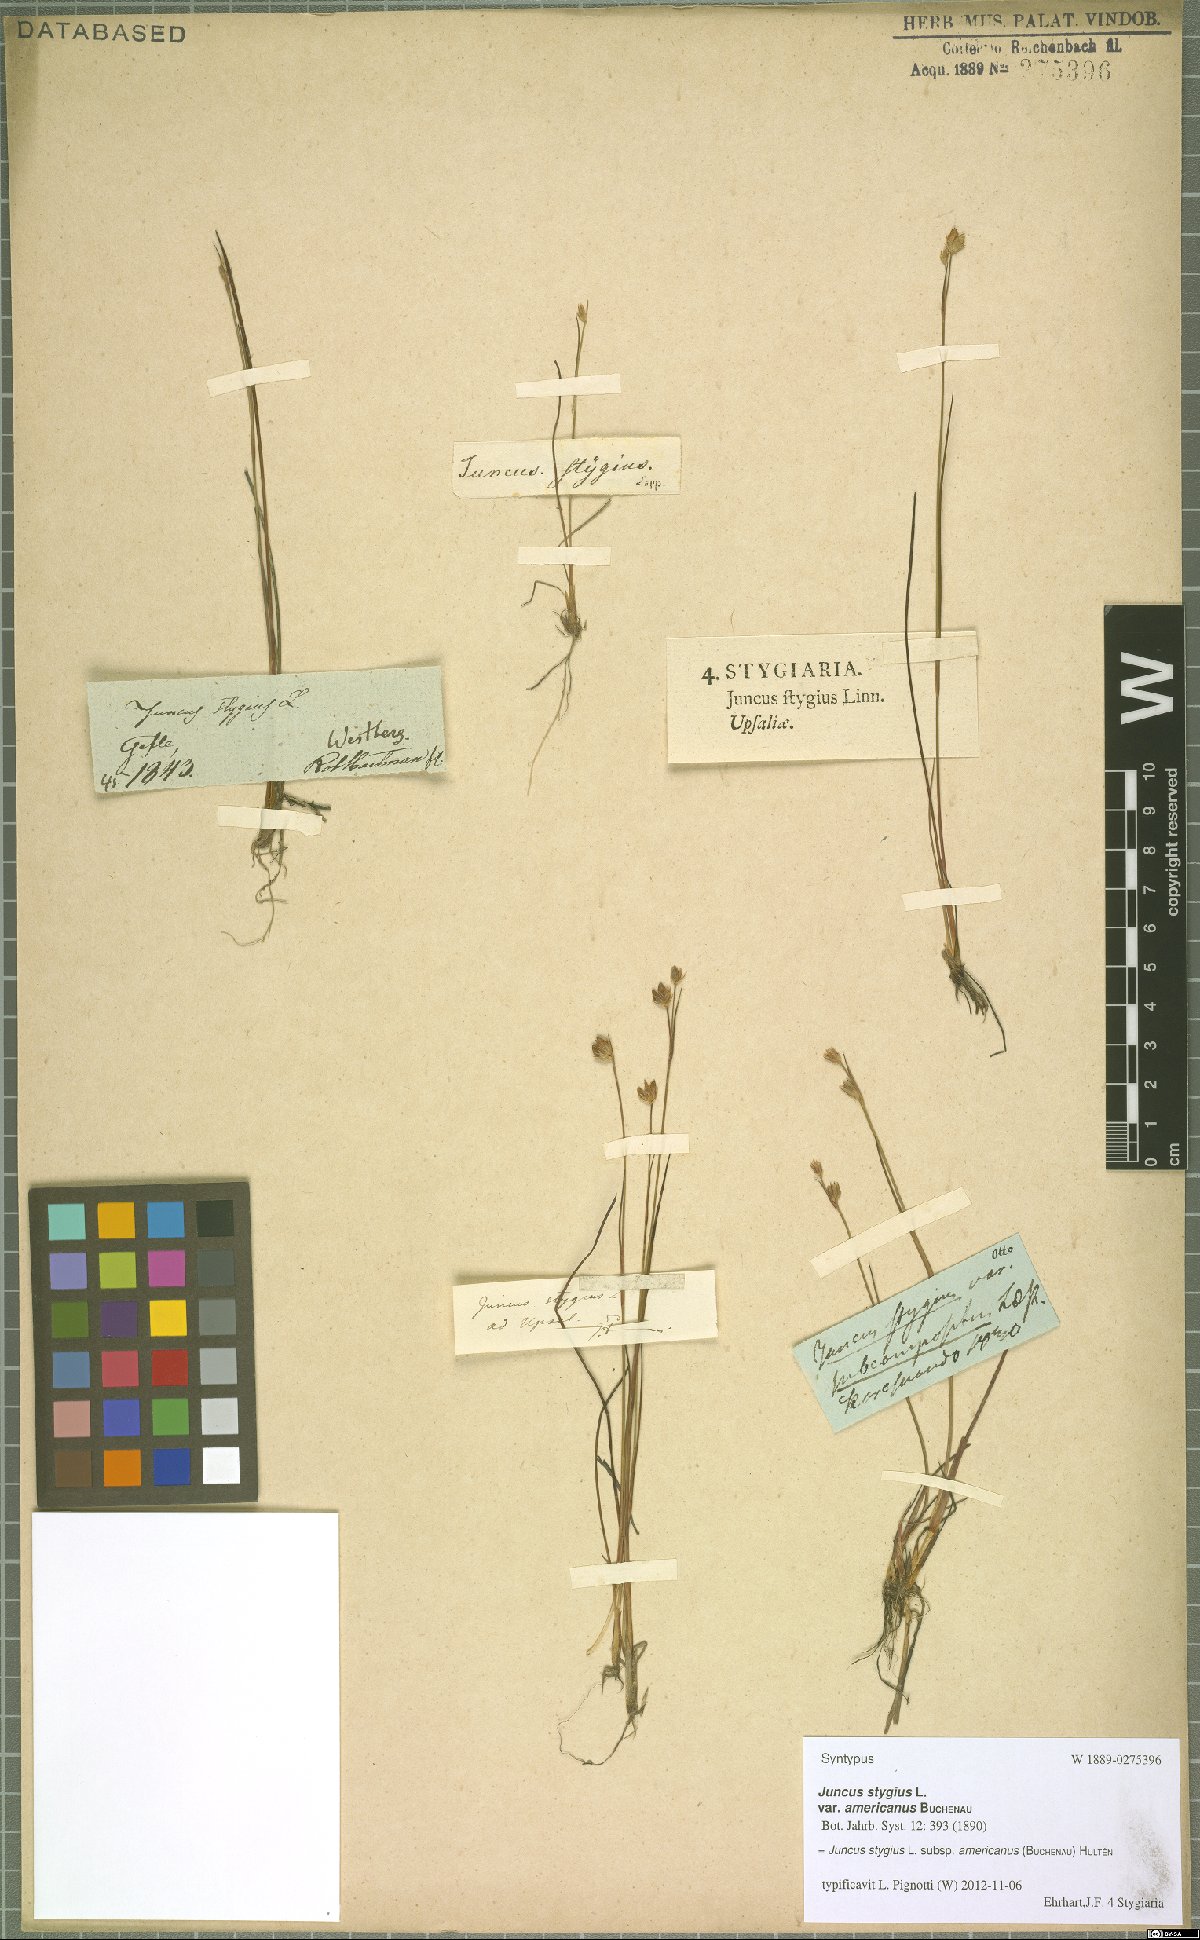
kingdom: Plantae
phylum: Tracheophyta
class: Liliopsida
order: Poales
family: Juncaceae
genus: Juncus
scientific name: Juncus stygius
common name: Bog rush
